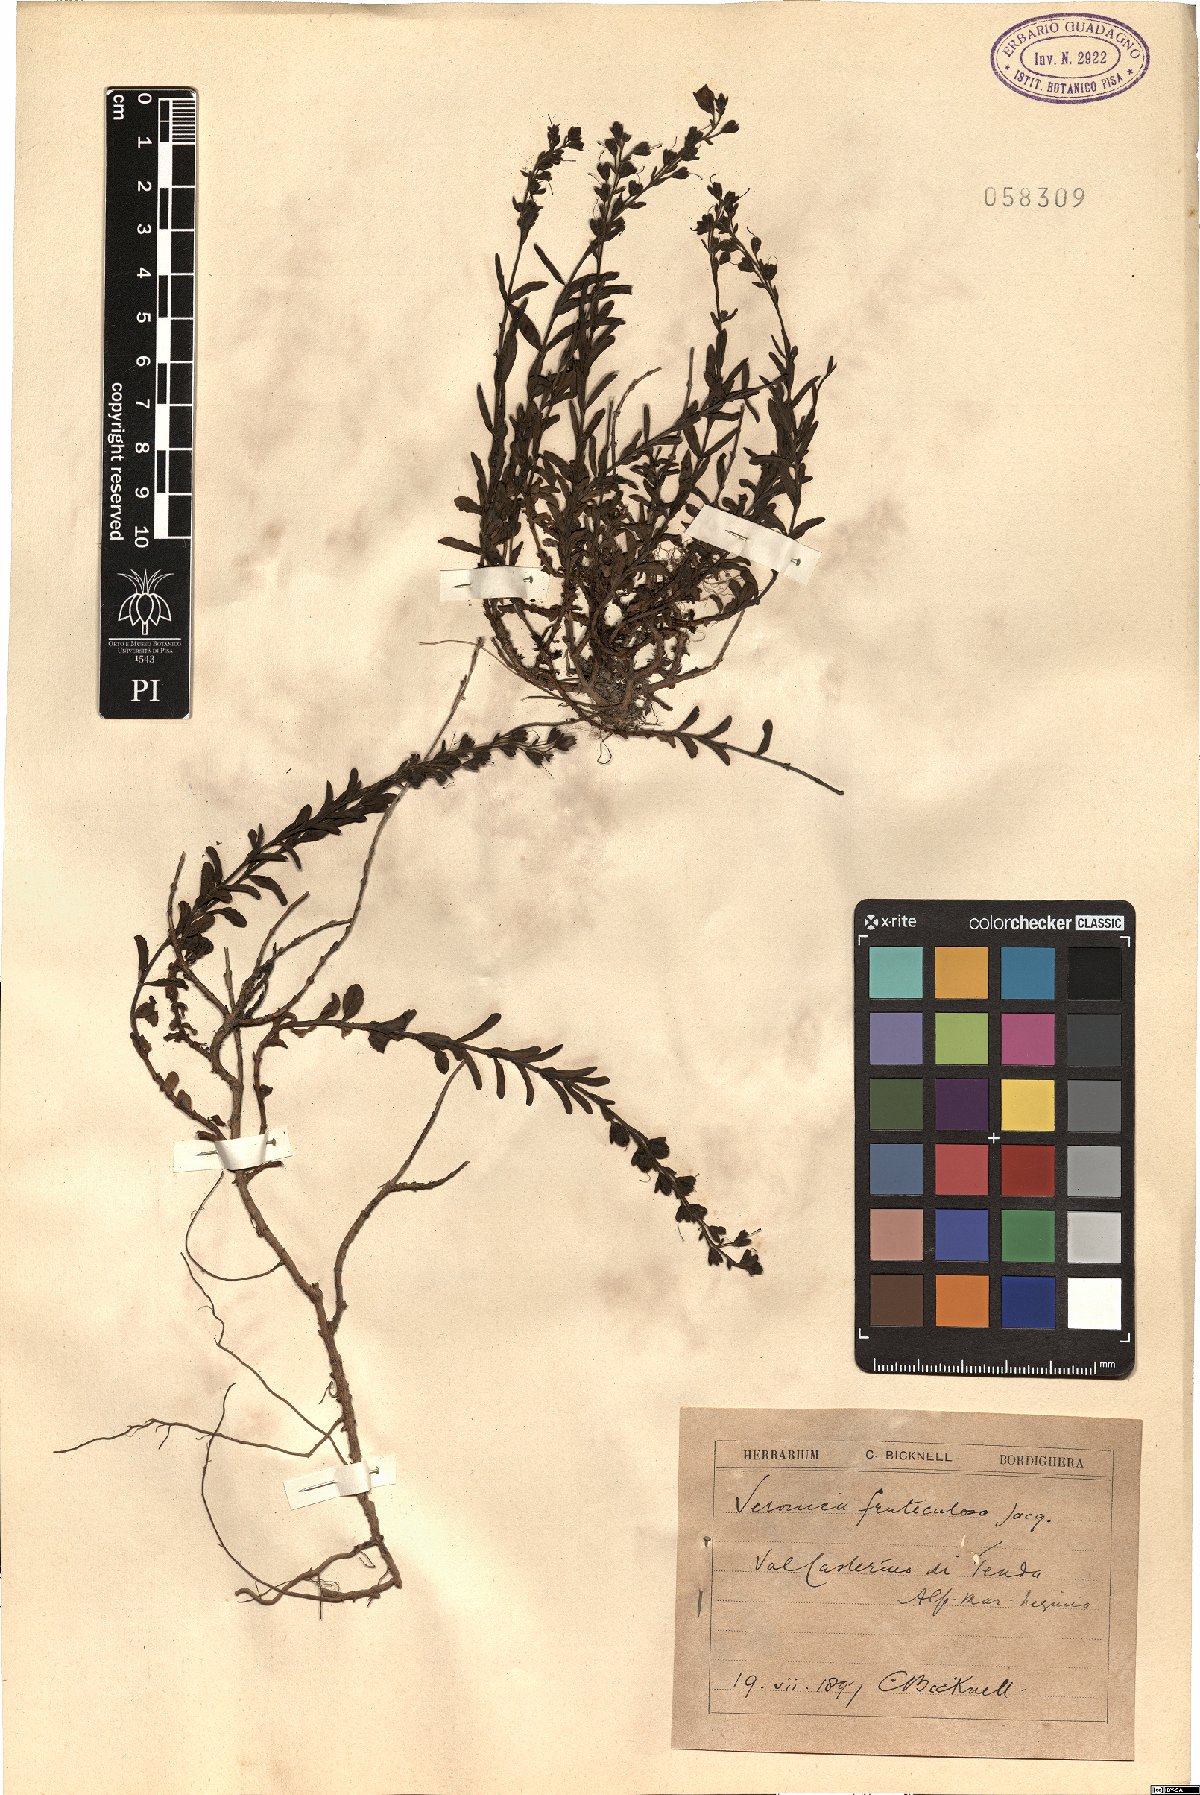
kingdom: Plantae
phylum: Tracheophyta
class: Magnoliopsida
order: Lamiales
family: Plantaginaceae
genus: Veronica
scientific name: Veronica fruticulosa
